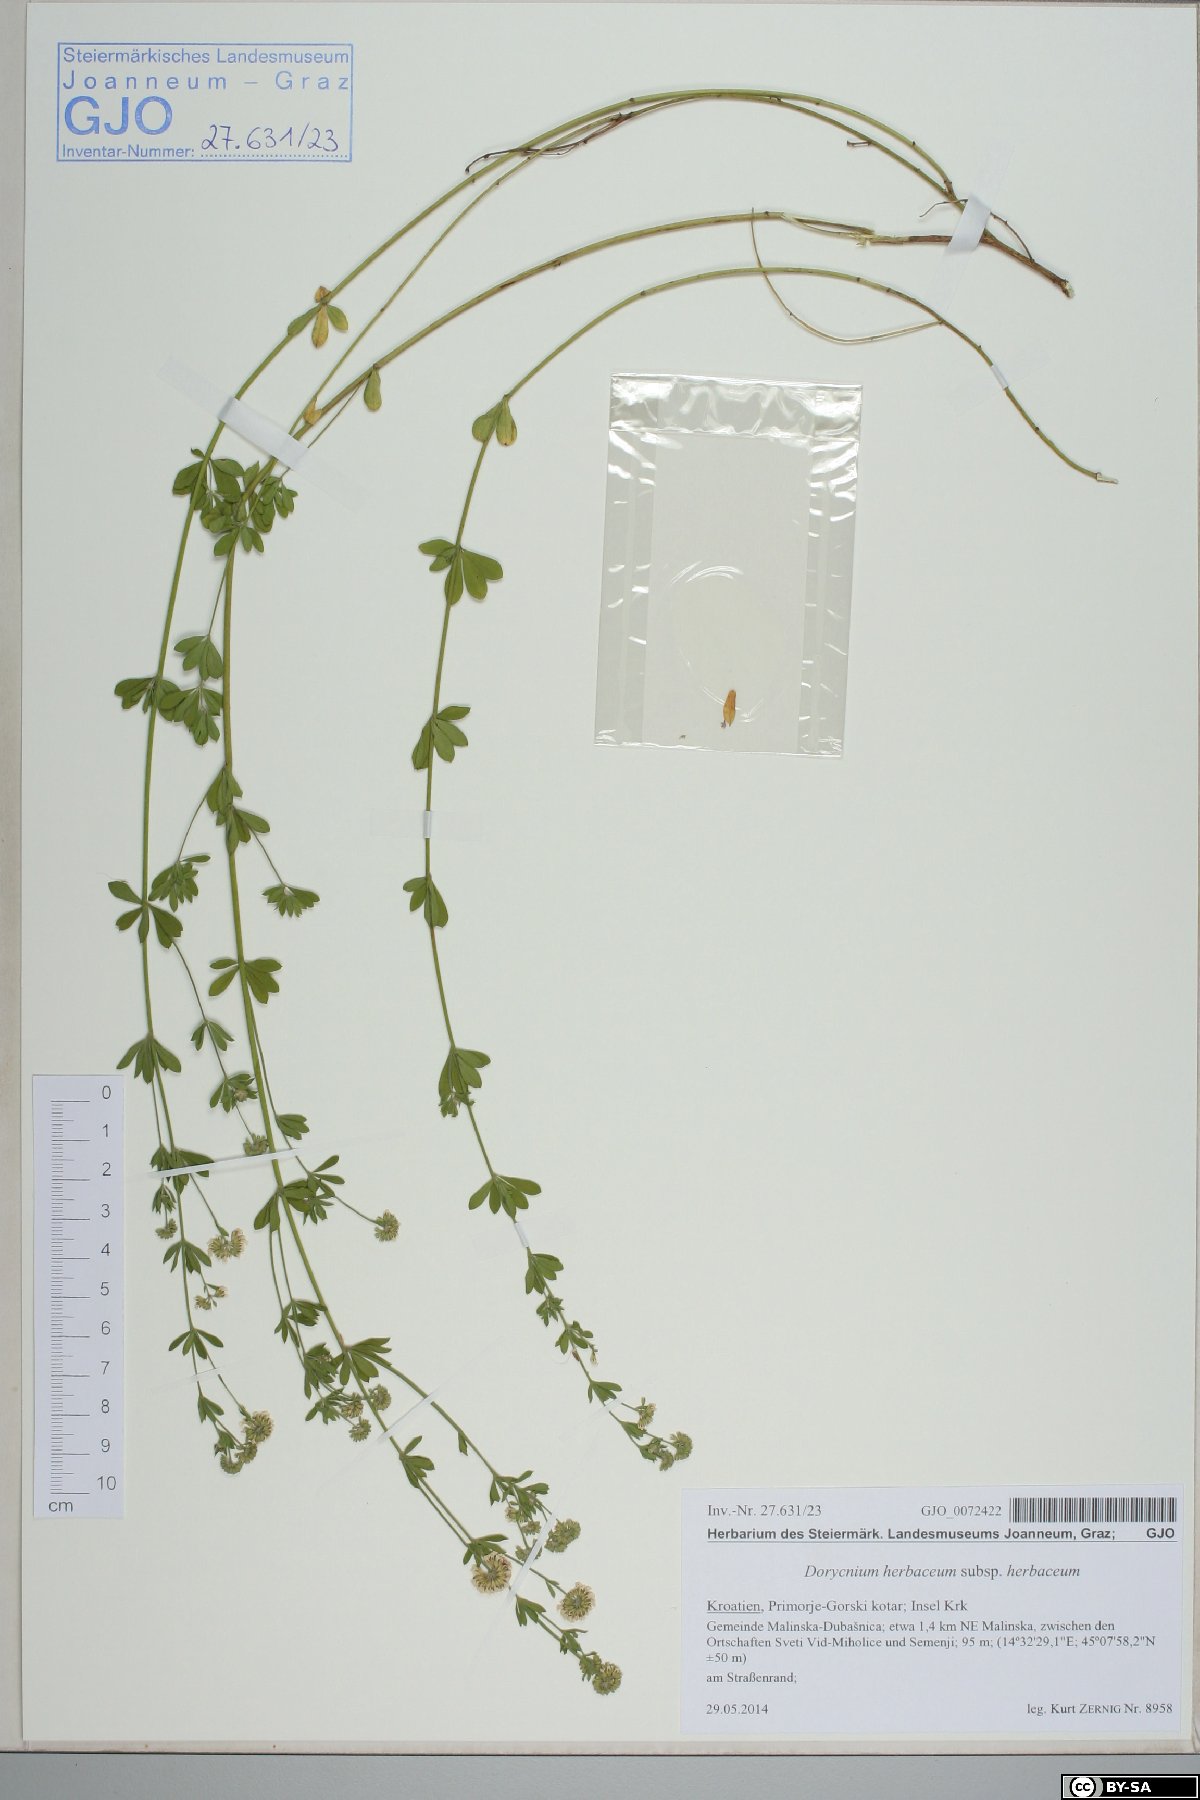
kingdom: Plantae
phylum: Tracheophyta
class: Magnoliopsida
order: Fabales
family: Fabaceae
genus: Lotus
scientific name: Lotus herbaceus
